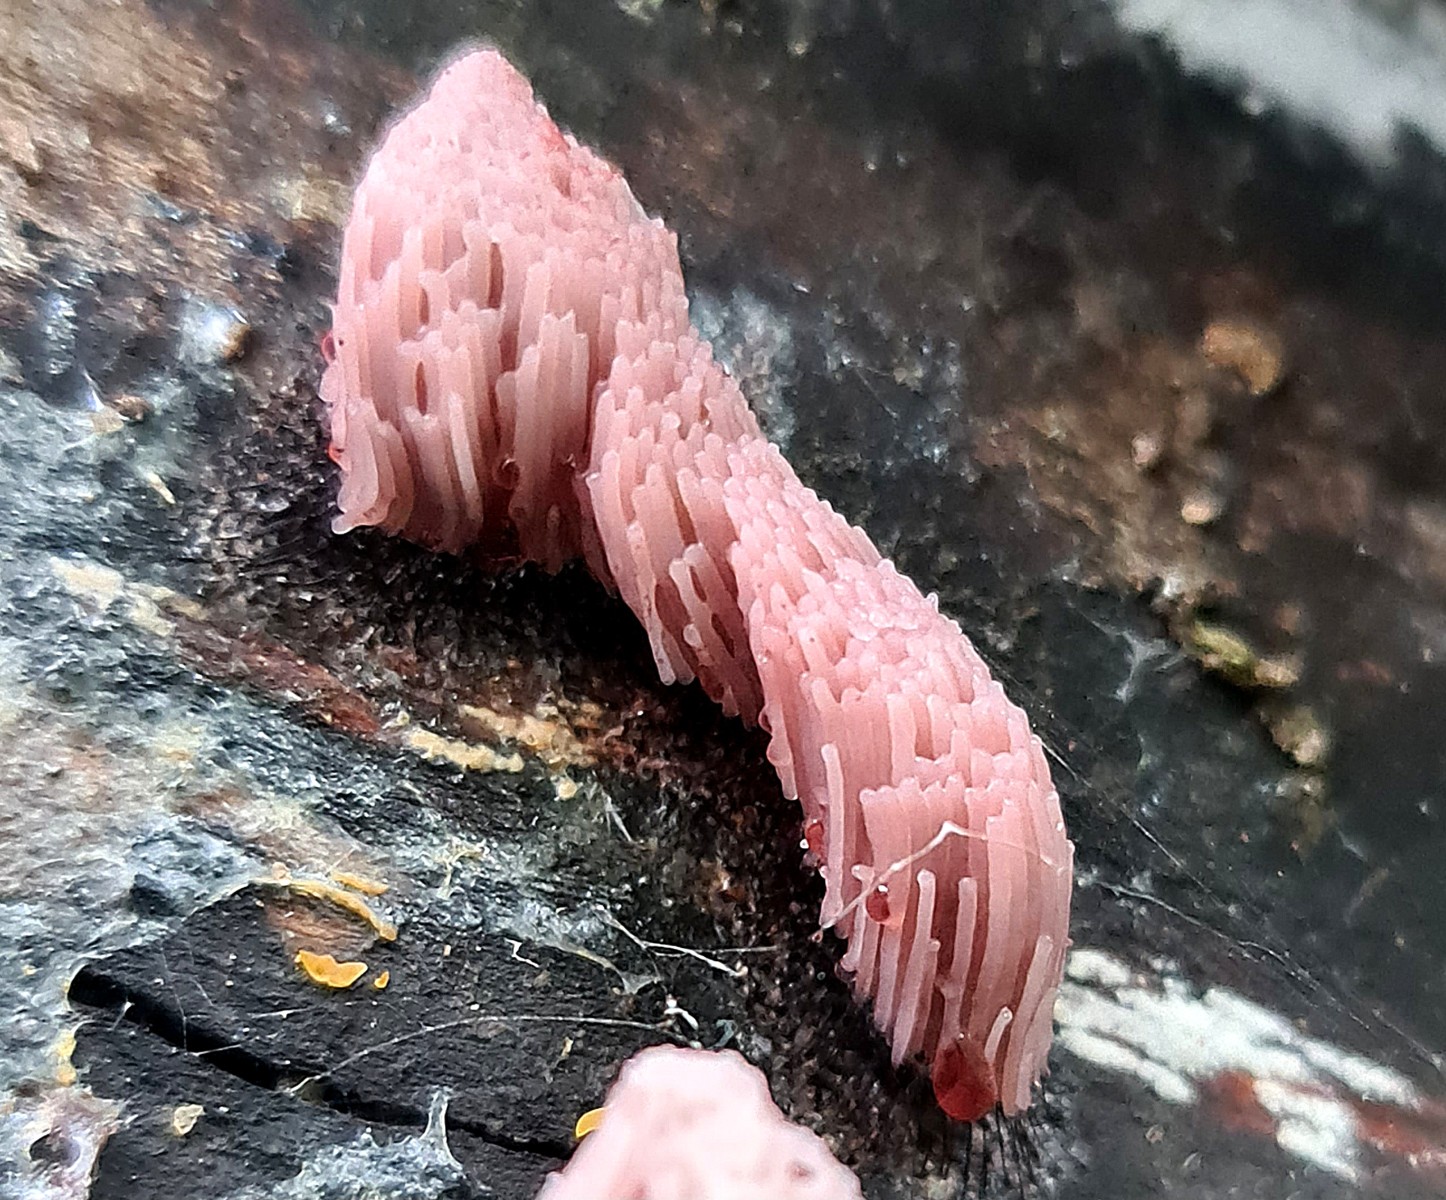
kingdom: Protozoa
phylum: Mycetozoa
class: Myxomycetes
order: Stemonitidales
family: Stemonitidaceae
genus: Stemonitis
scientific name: Stemonitis
